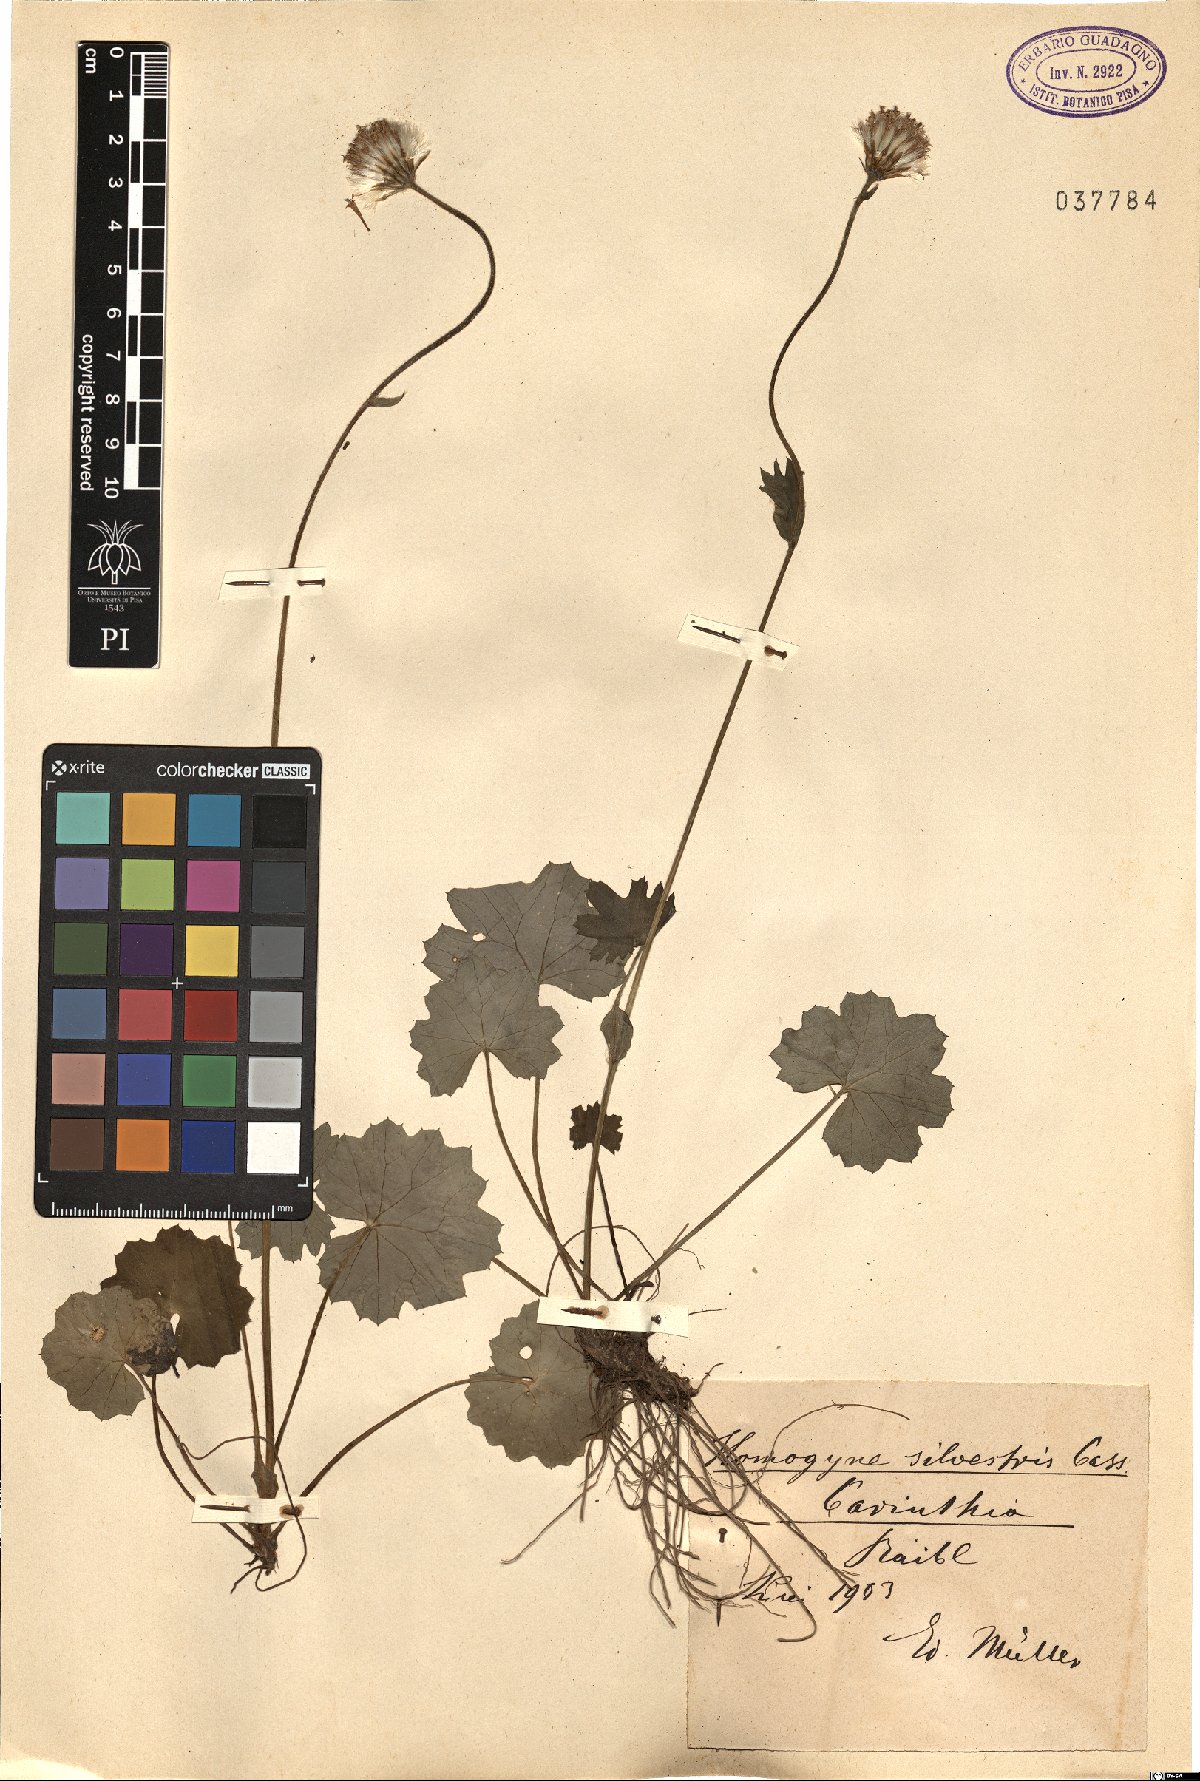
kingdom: Plantae
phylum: Tracheophyta
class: Magnoliopsida
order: Asterales
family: Asteraceae
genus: Homogyne
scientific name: Homogyne sylvestris
